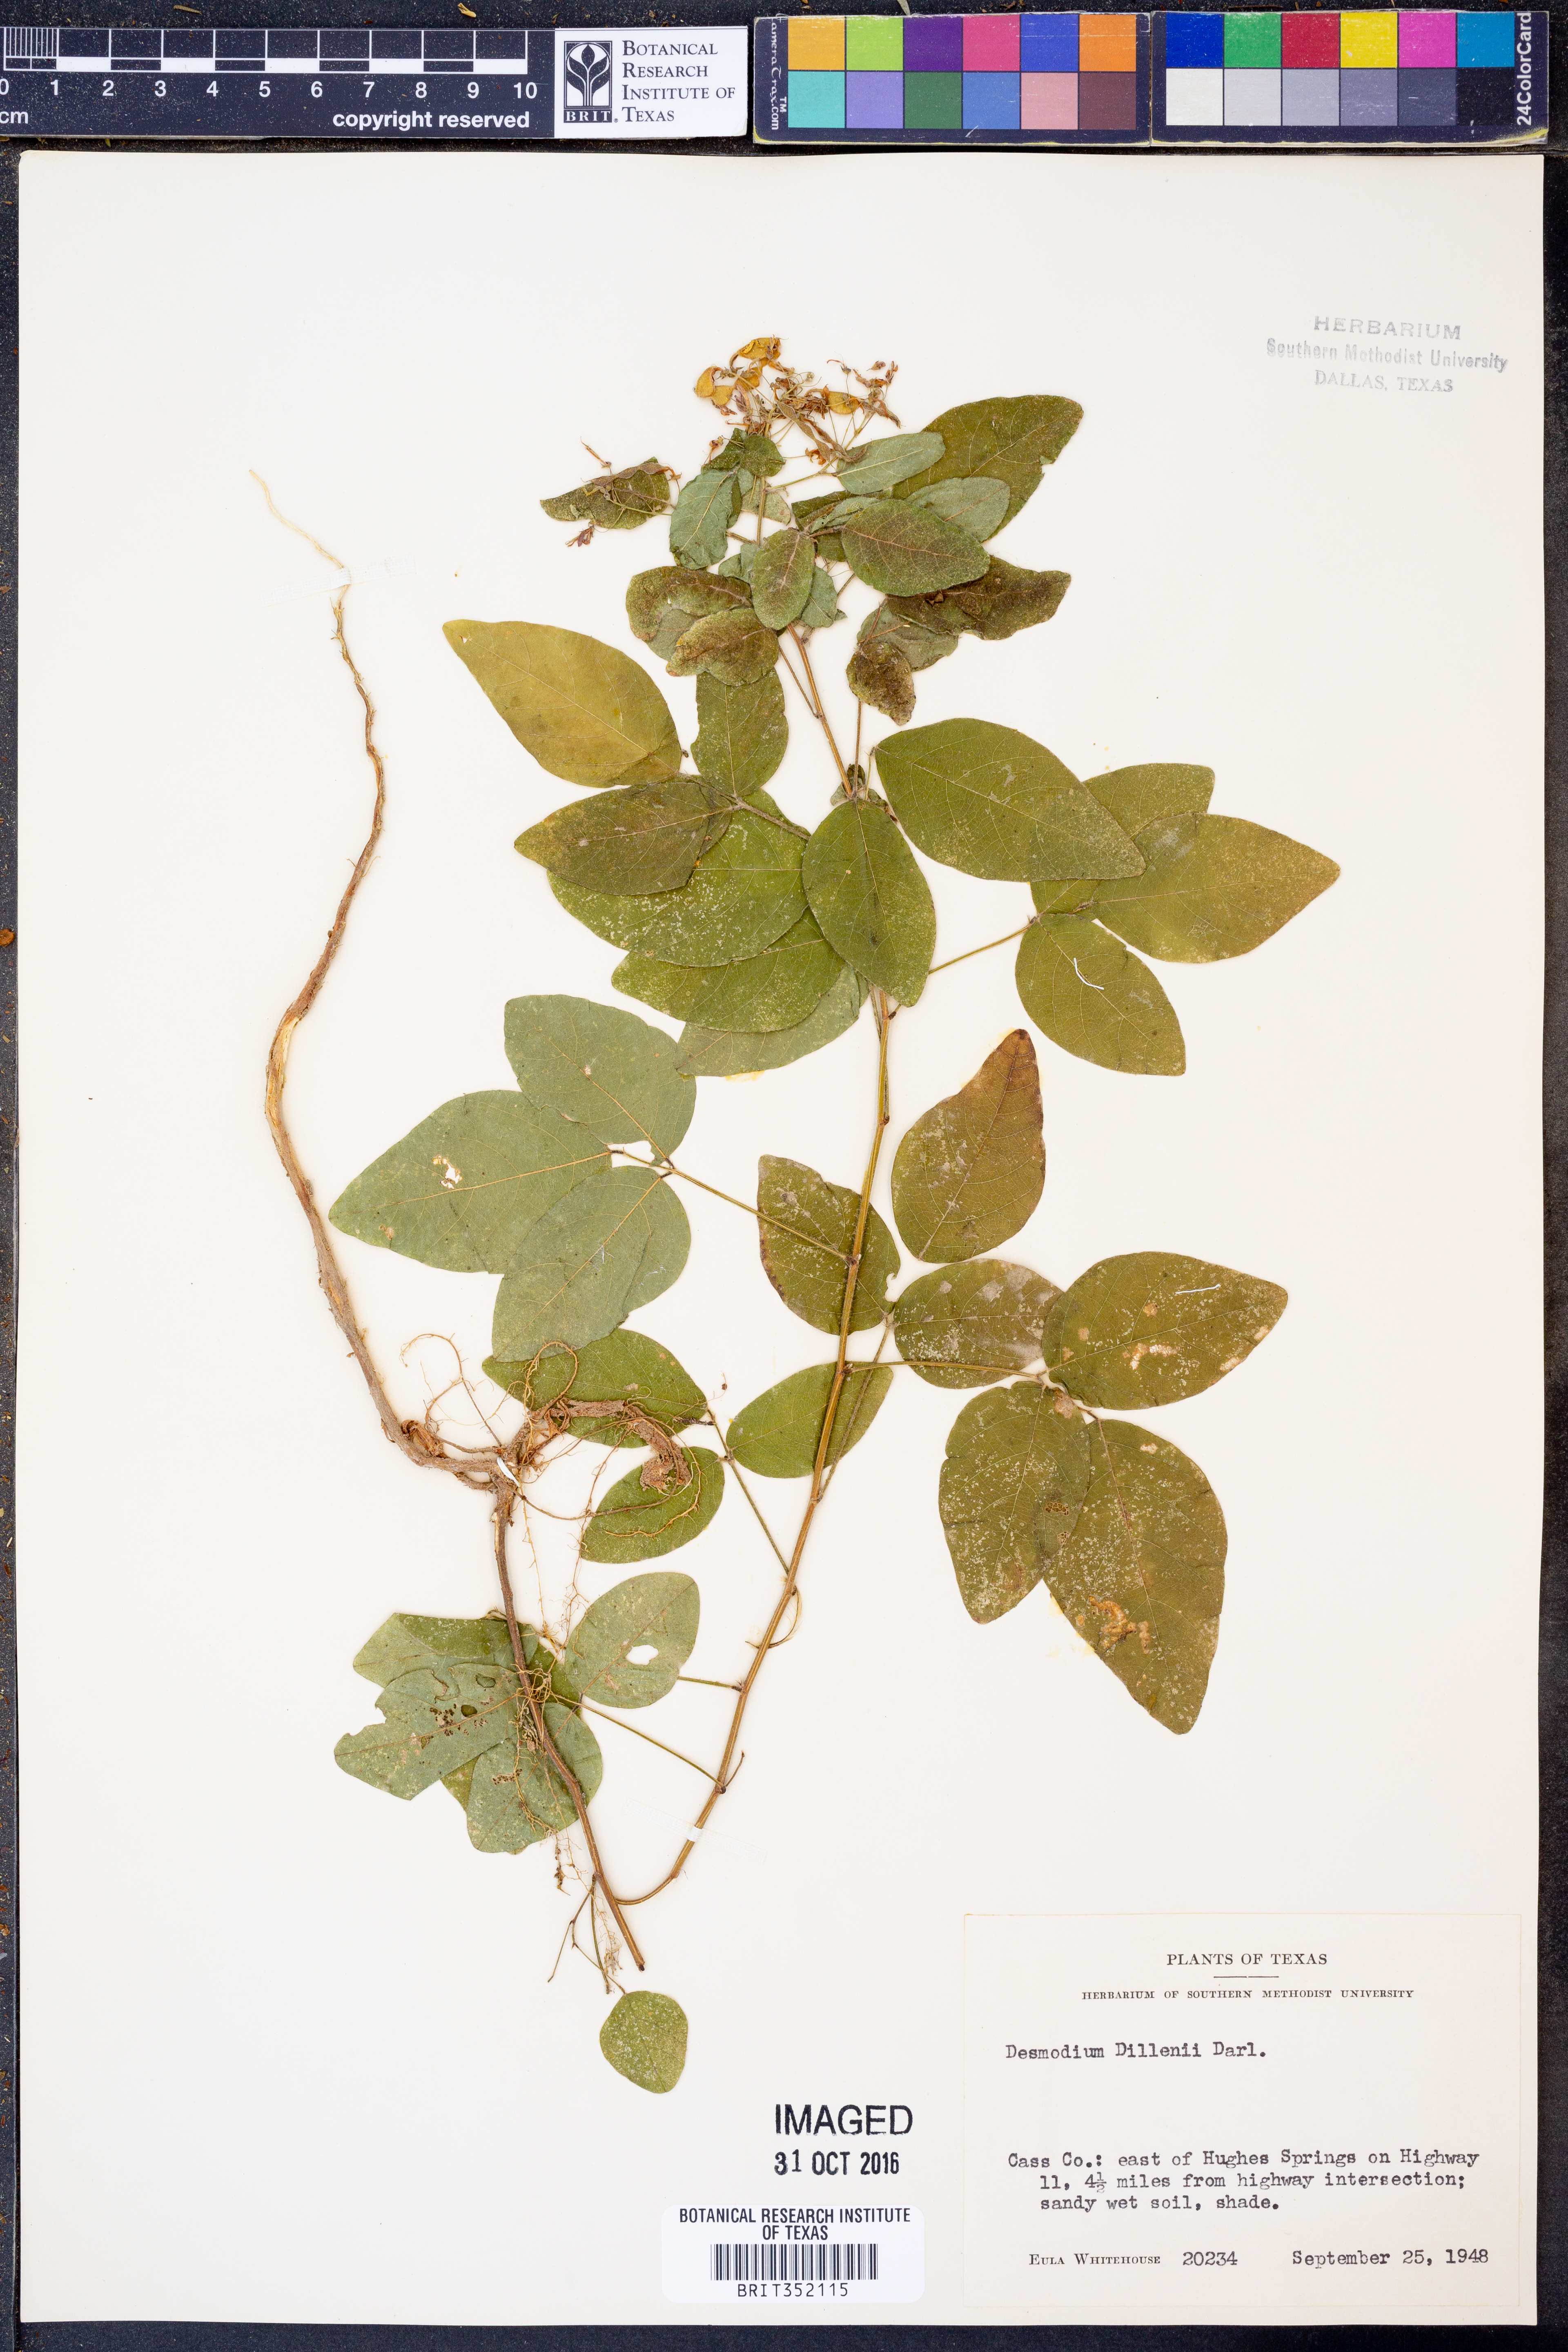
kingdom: Plantae
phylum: Tracheophyta
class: Magnoliopsida
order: Fabales
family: Fabaceae
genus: Desmodium
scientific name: Desmodium perplexum
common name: Perplexed tick trefoil
